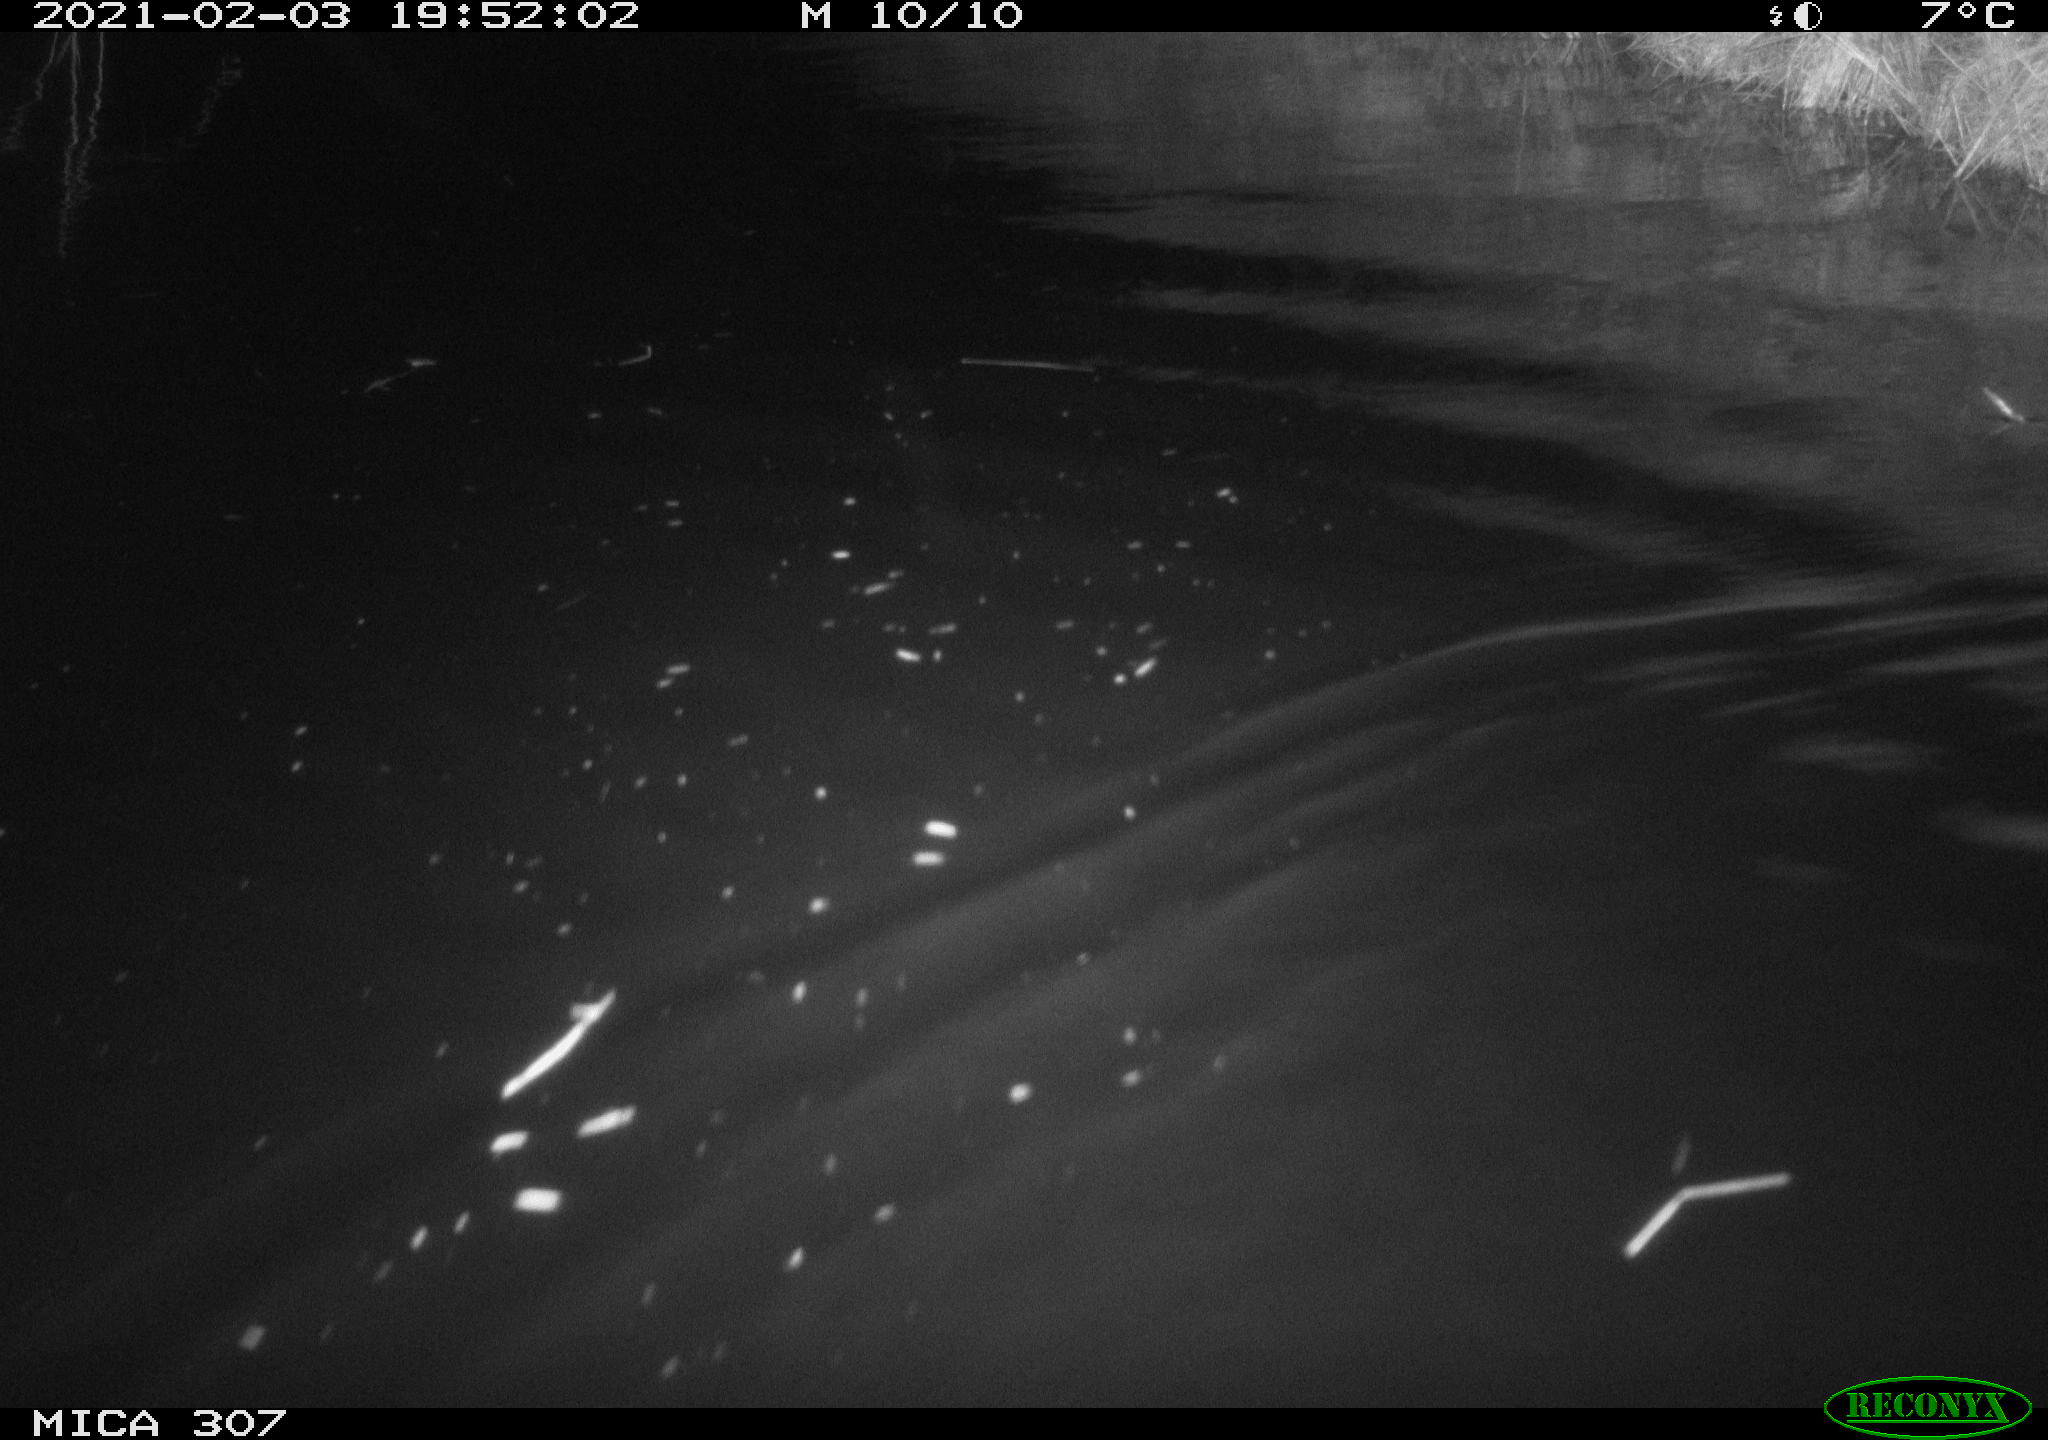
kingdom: Animalia
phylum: Chordata
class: Mammalia
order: Rodentia
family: Cricetidae
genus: Ondatra
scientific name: Ondatra zibethicus
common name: Muskrat
